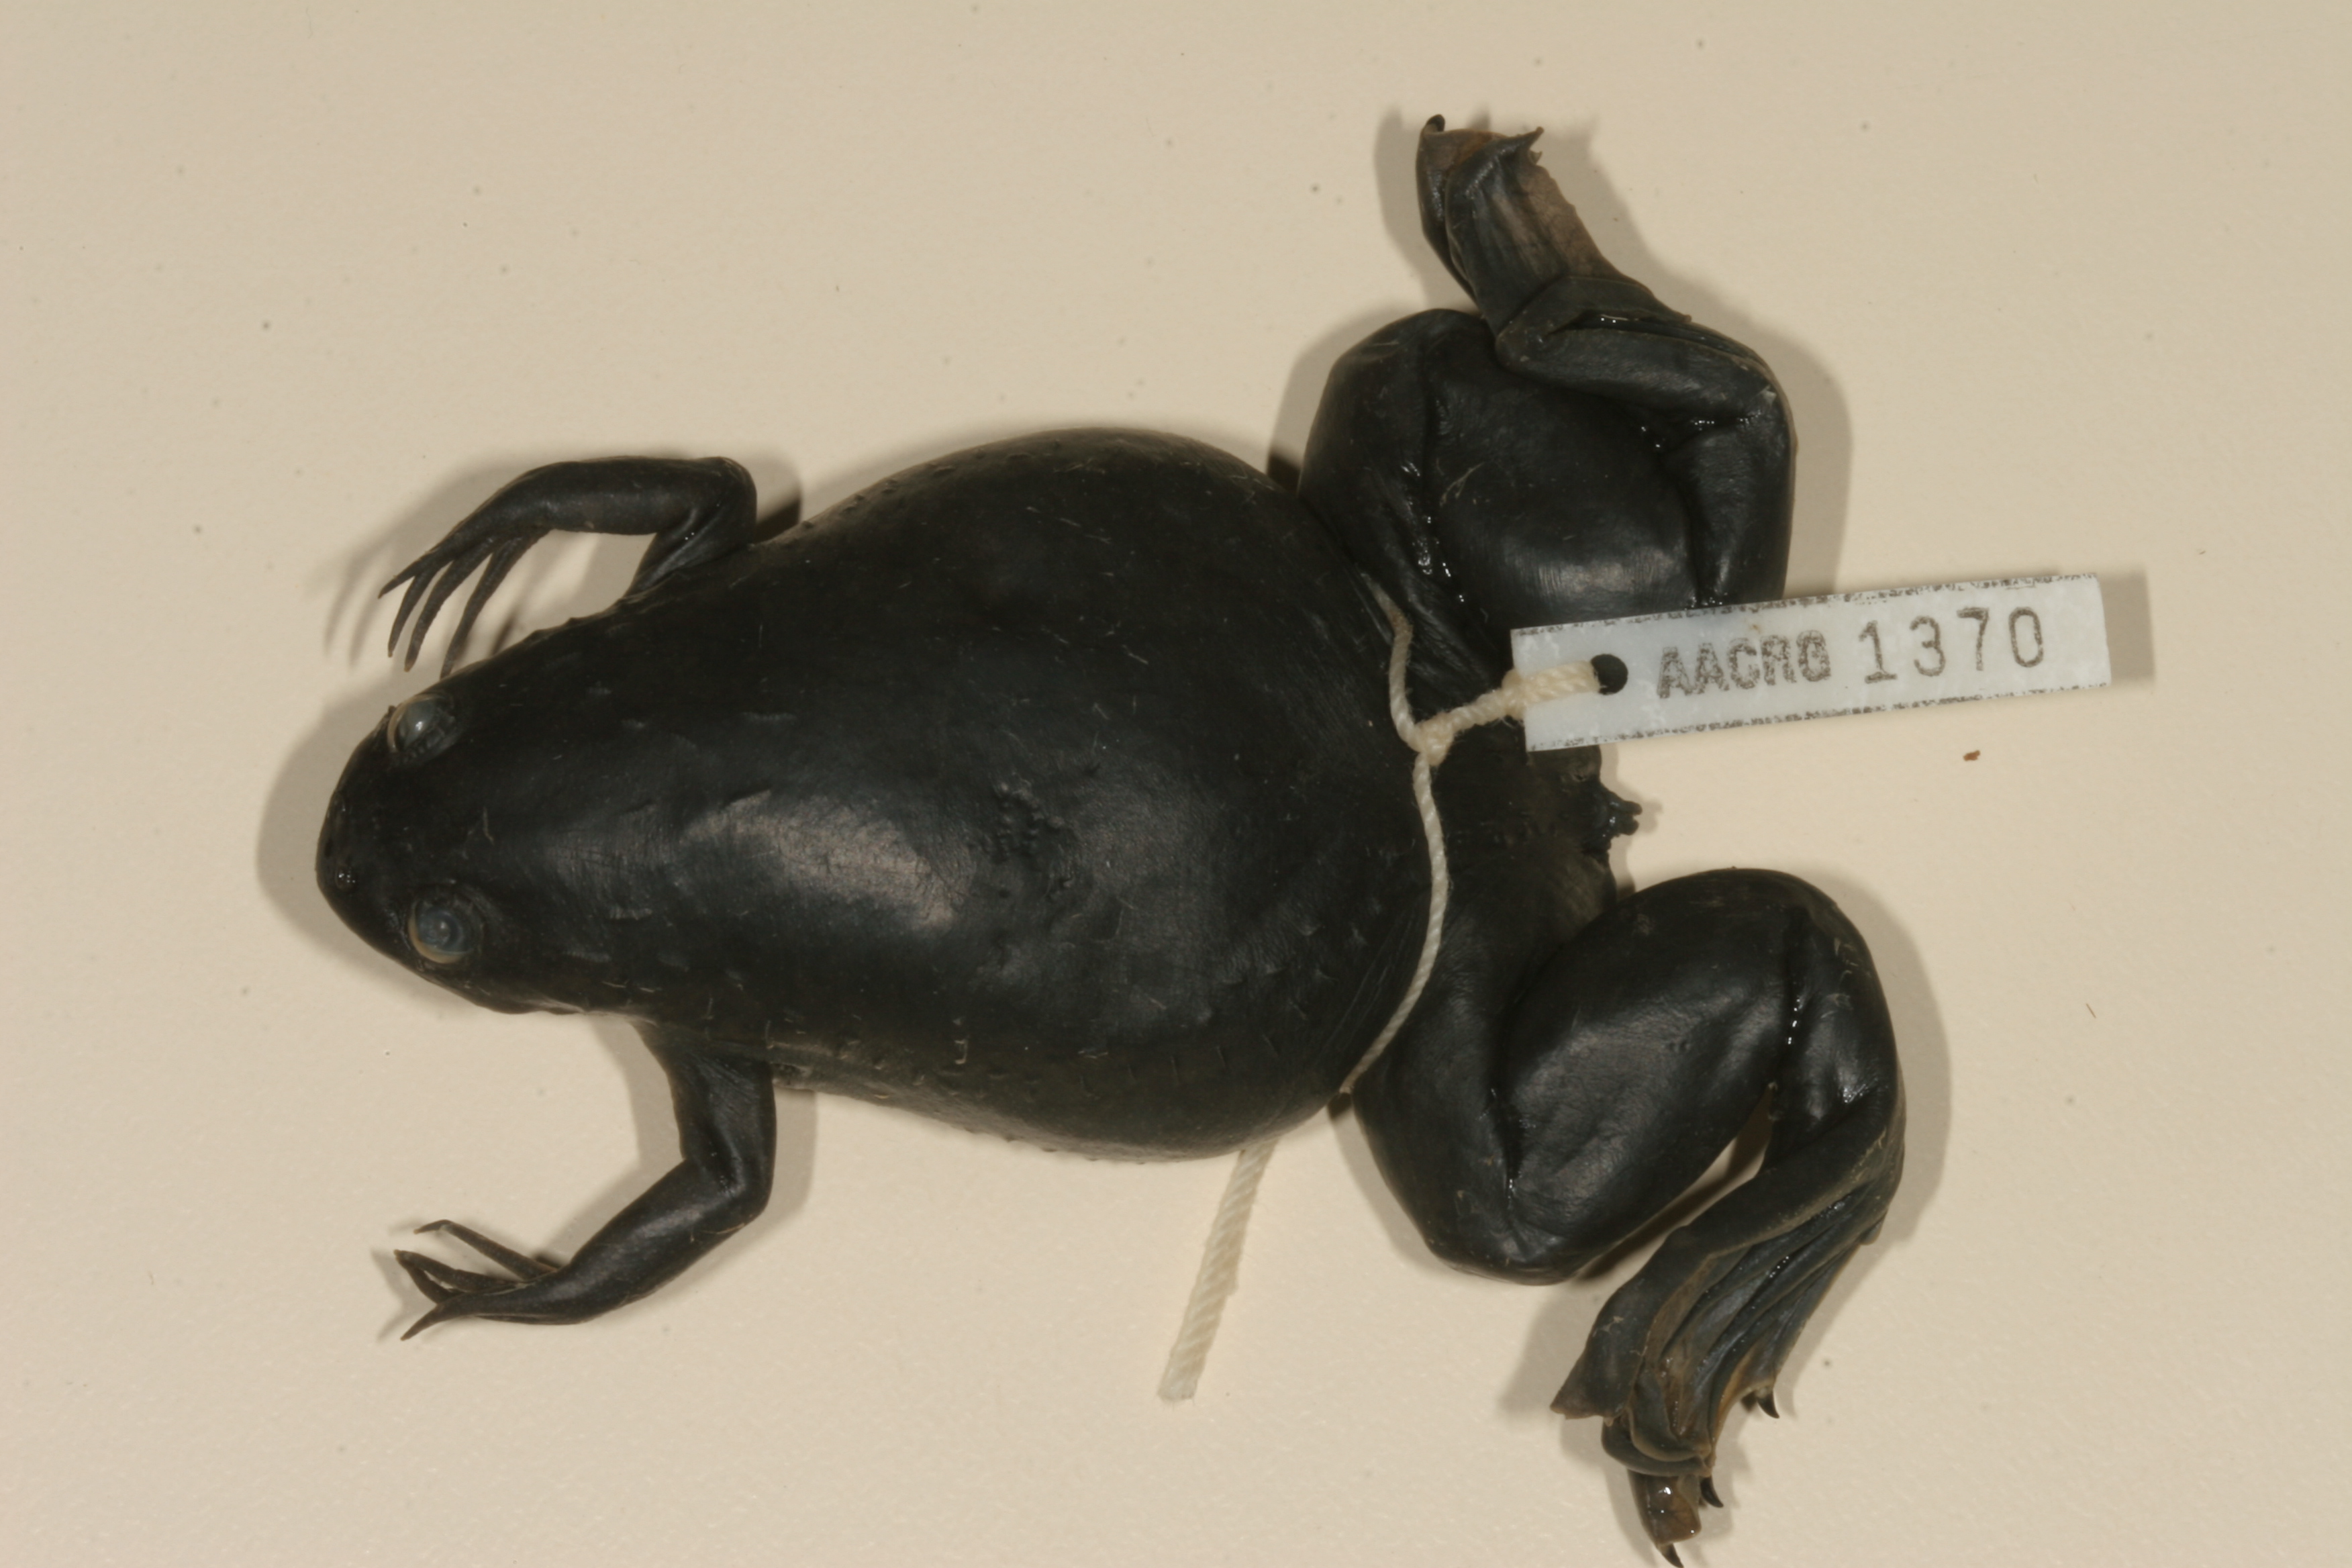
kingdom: Animalia
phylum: Chordata
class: Amphibia
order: Anura
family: Pipidae
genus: Xenopus
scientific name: Xenopus laevis
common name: African clawed frog
